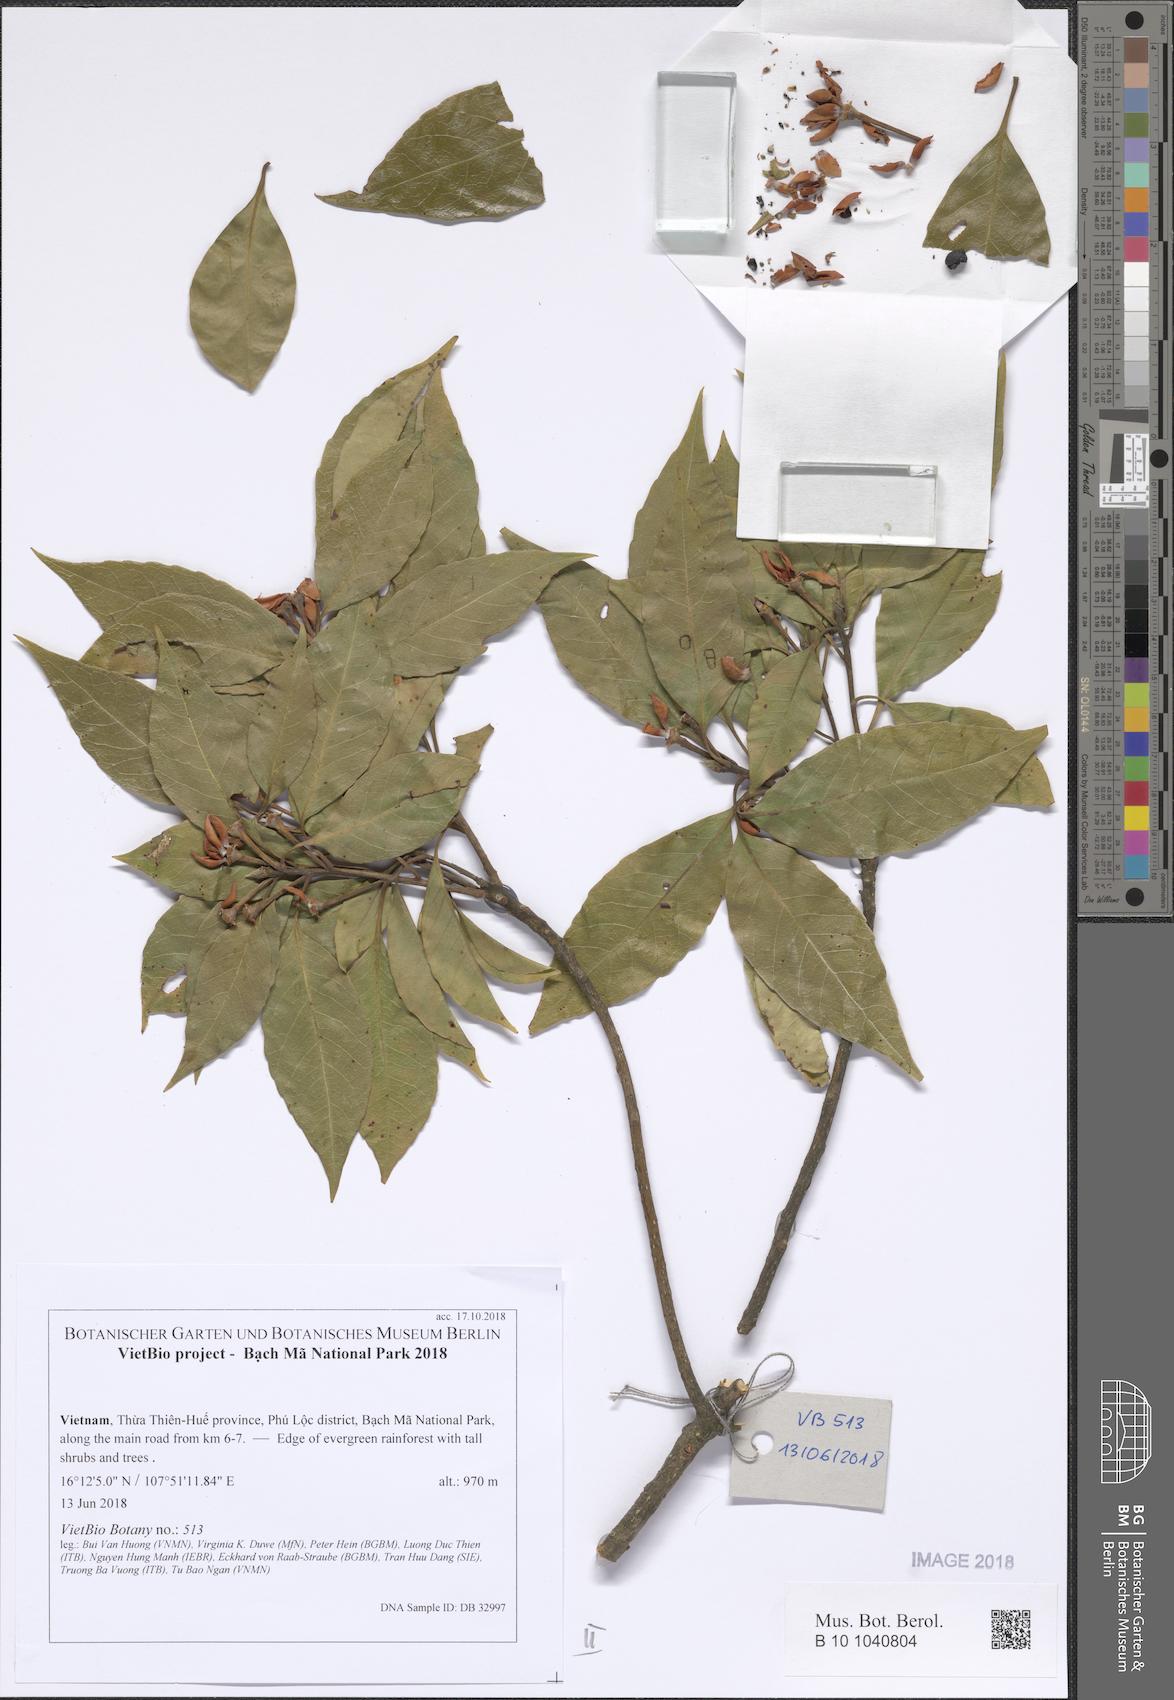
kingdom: Plantae
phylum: Tracheophyta
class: Magnoliopsida
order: Ericales
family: Pentaphylacaceae
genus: Adinandra
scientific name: Adinandra
